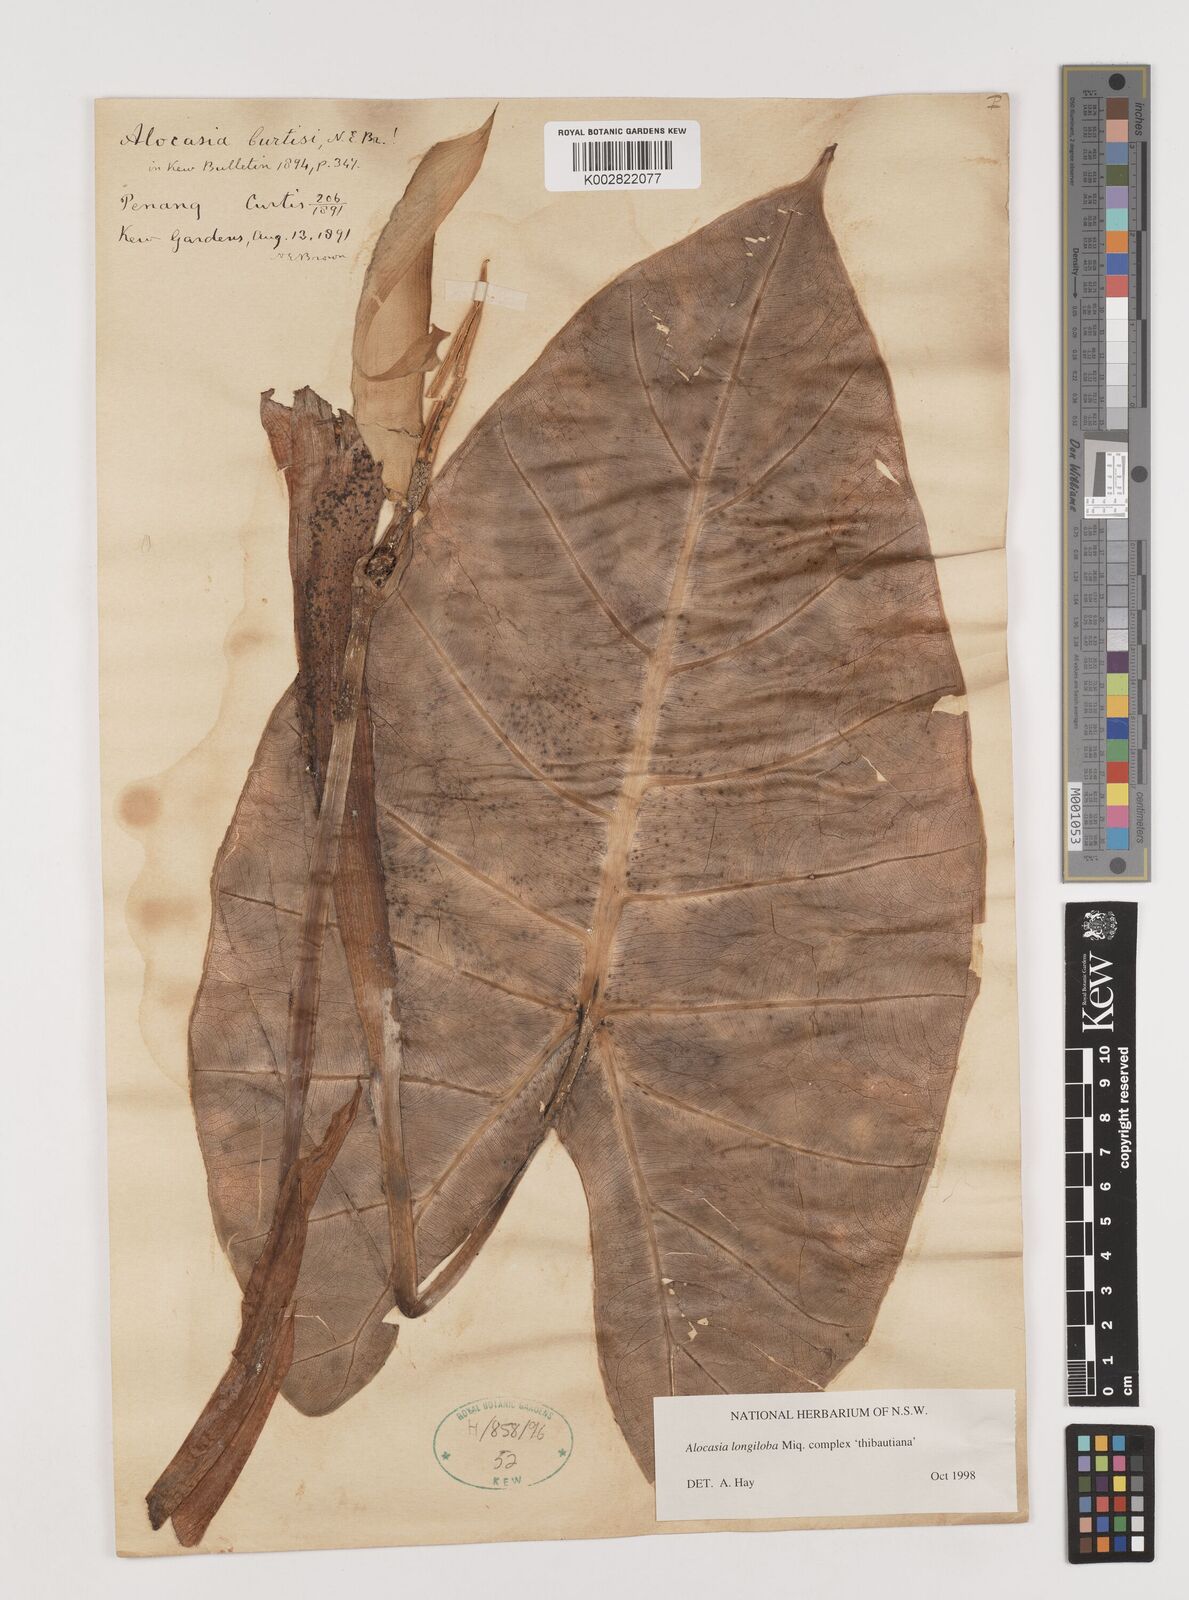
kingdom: Plantae
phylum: Tracheophyta
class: Liliopsida
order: Alismatales
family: Araceae
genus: Alocasia
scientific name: Alocasia longiloba
